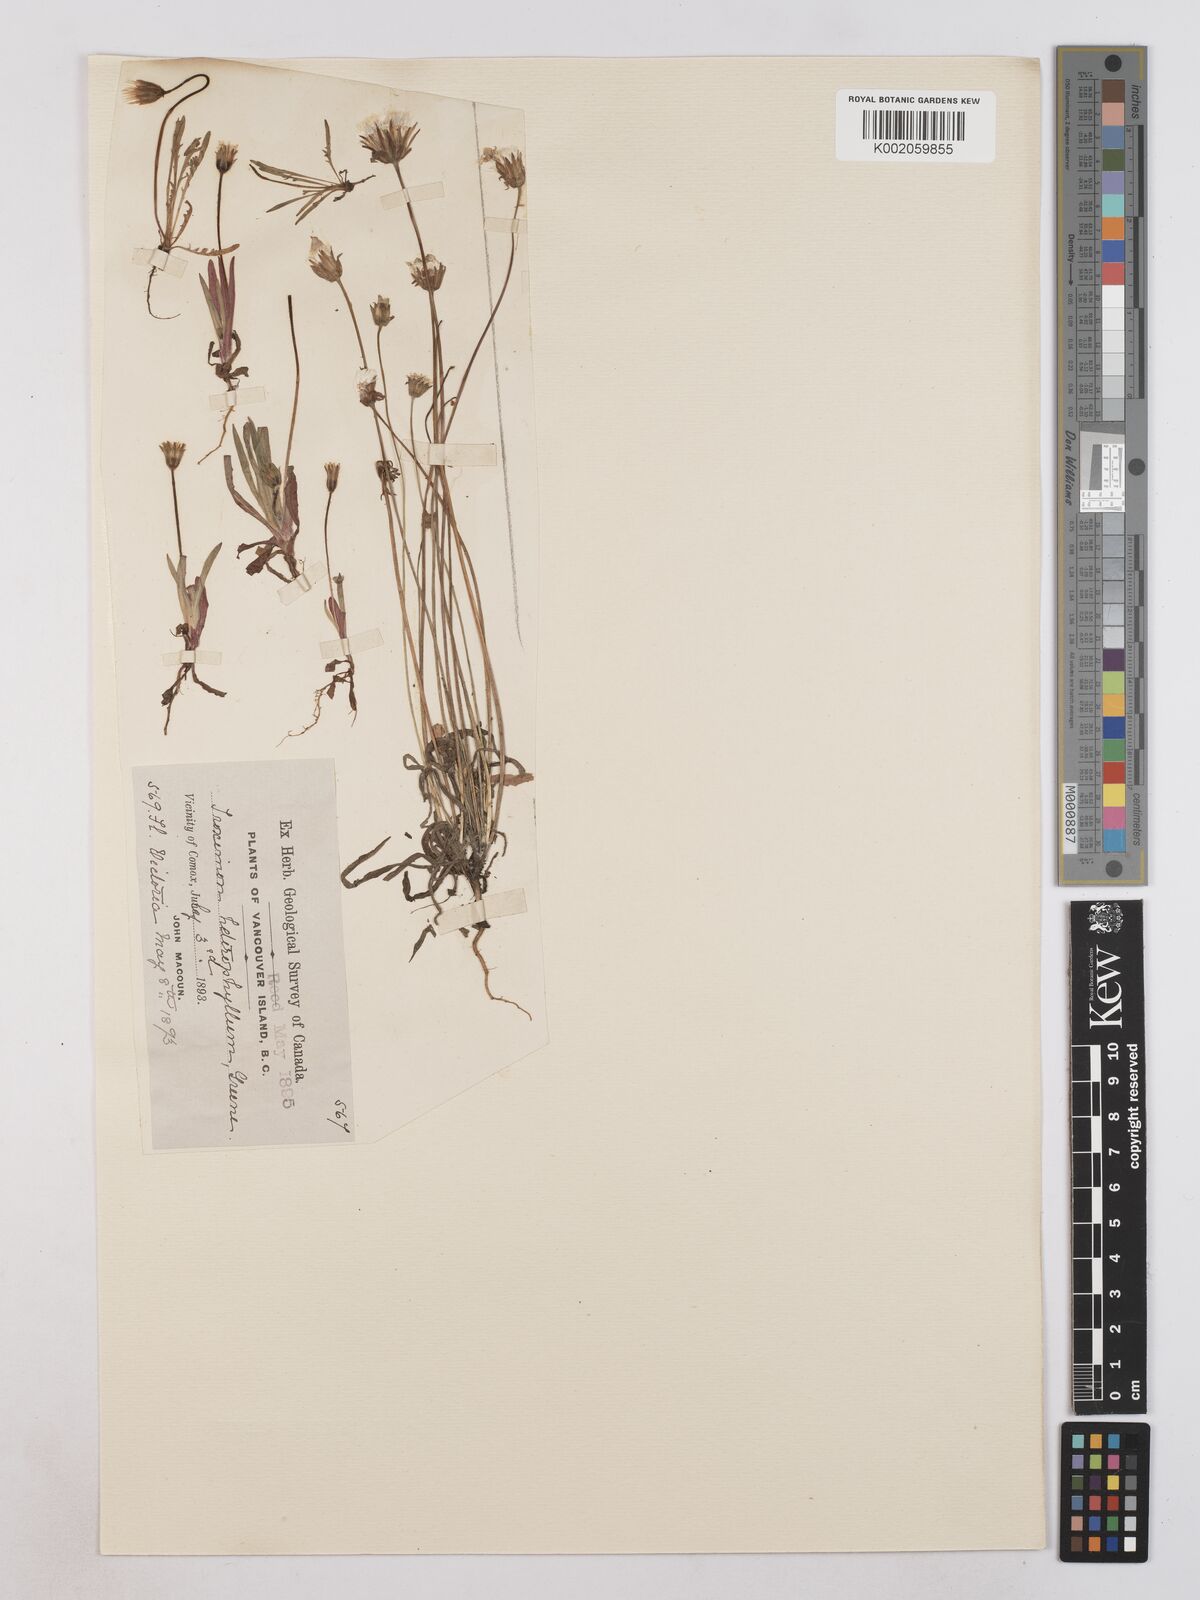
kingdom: Plantae
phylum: Tracheophyta
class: Magnoliopsida
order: Asterales
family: Asteraceae
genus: Agoseris
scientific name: Agoseris heterophylla
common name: Annual agoseris
